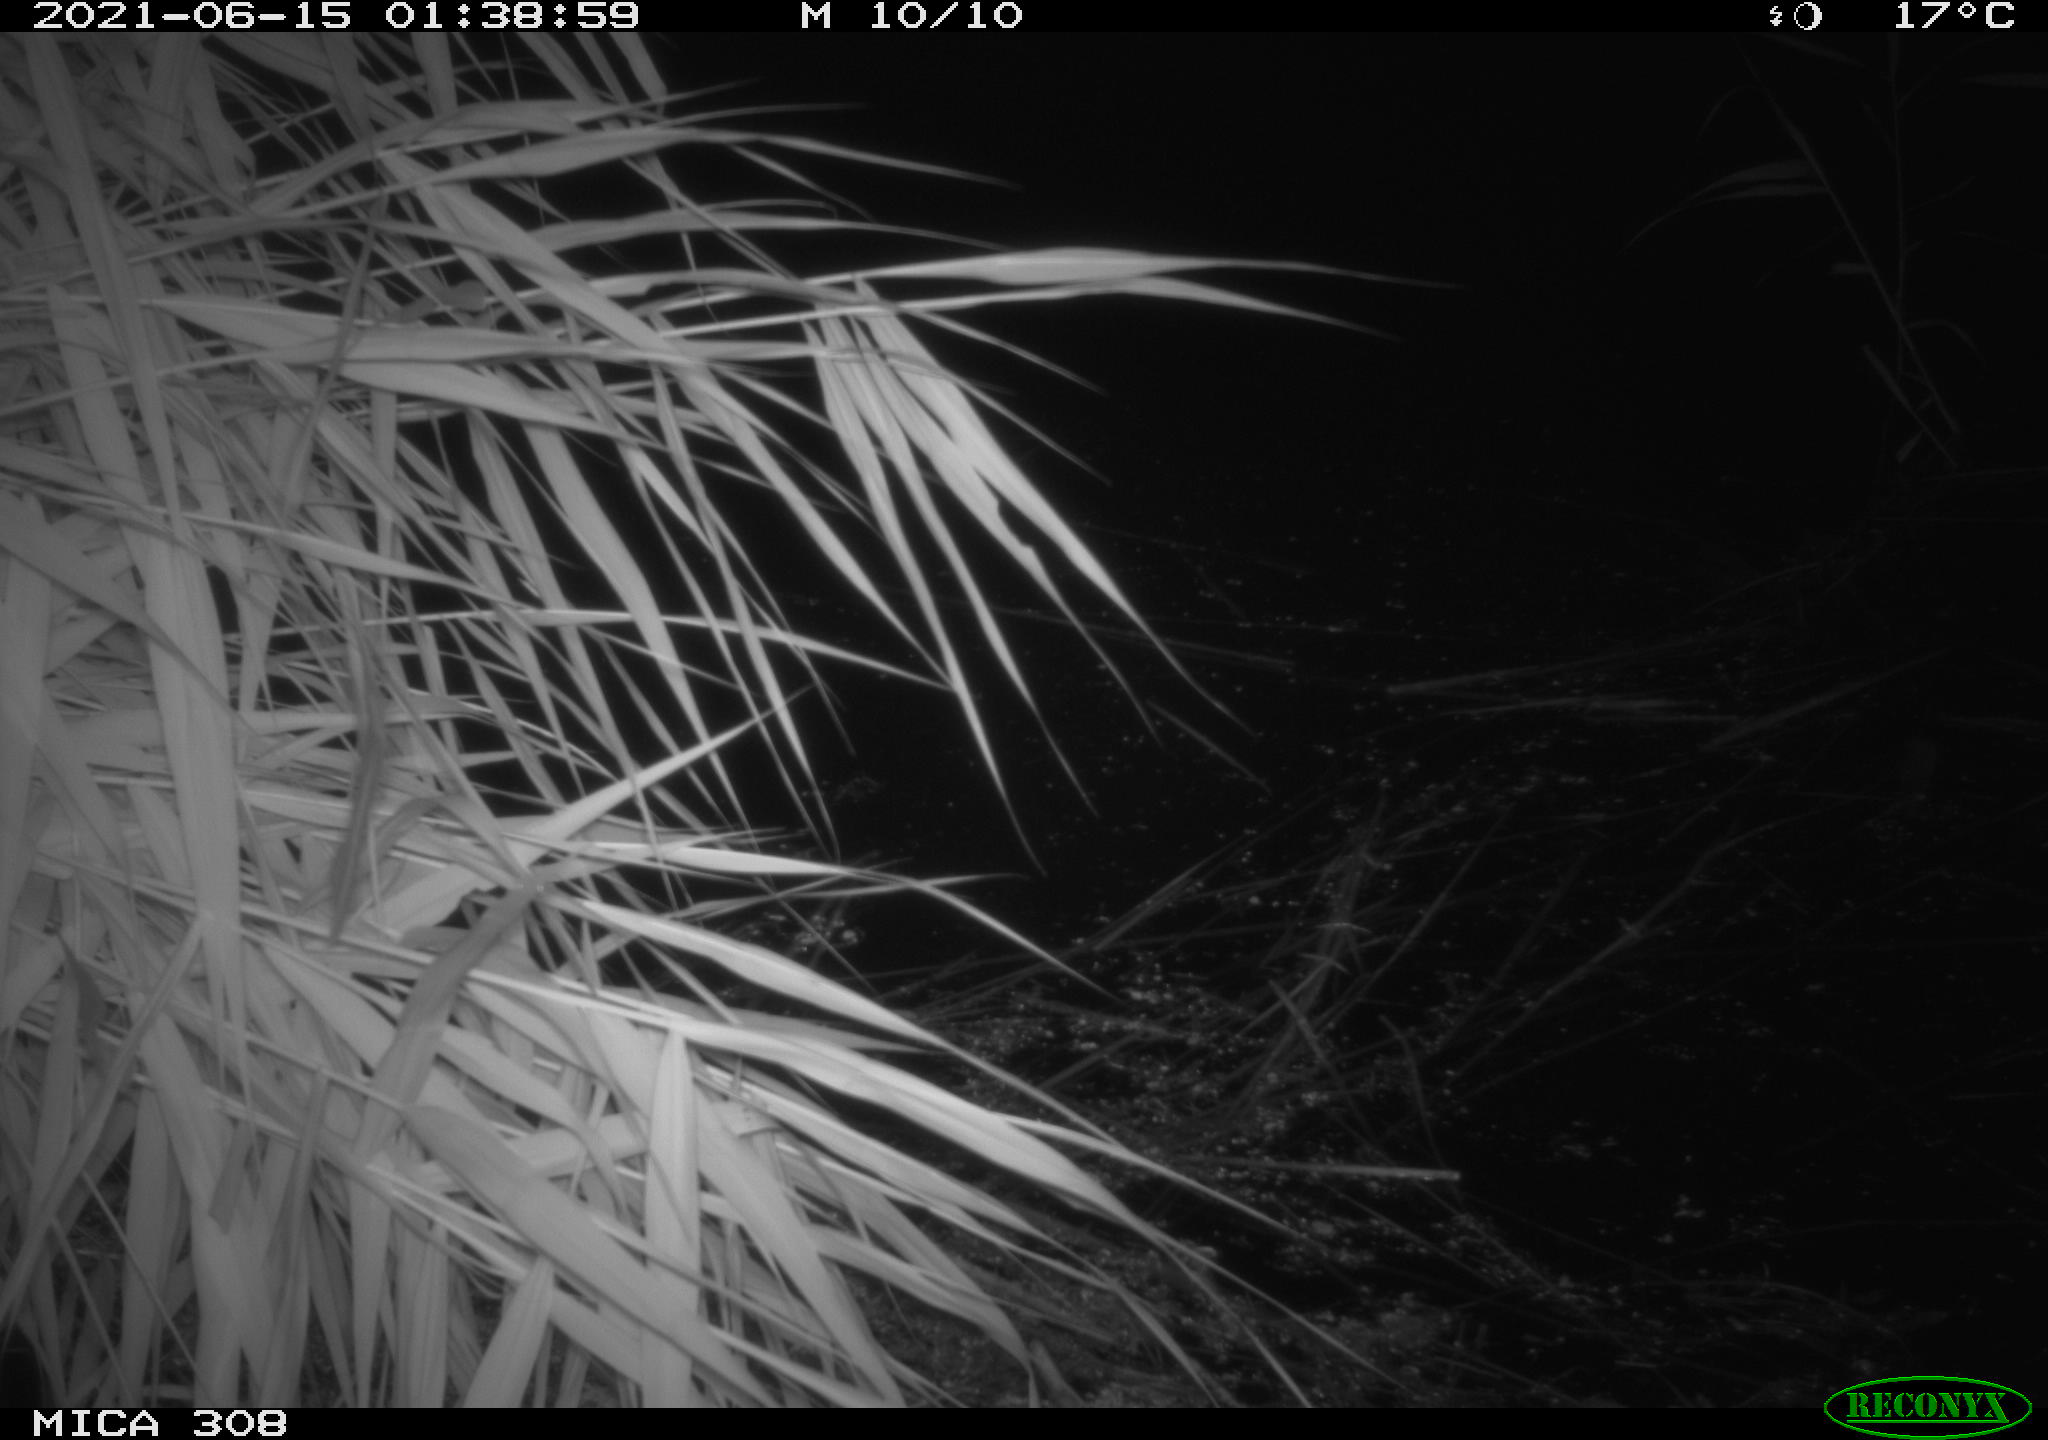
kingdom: Animalia
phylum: Chordata
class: Aves
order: Anseriformes
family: Anatidae
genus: Anas
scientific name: Anas platyrhynchos
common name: Mallard
